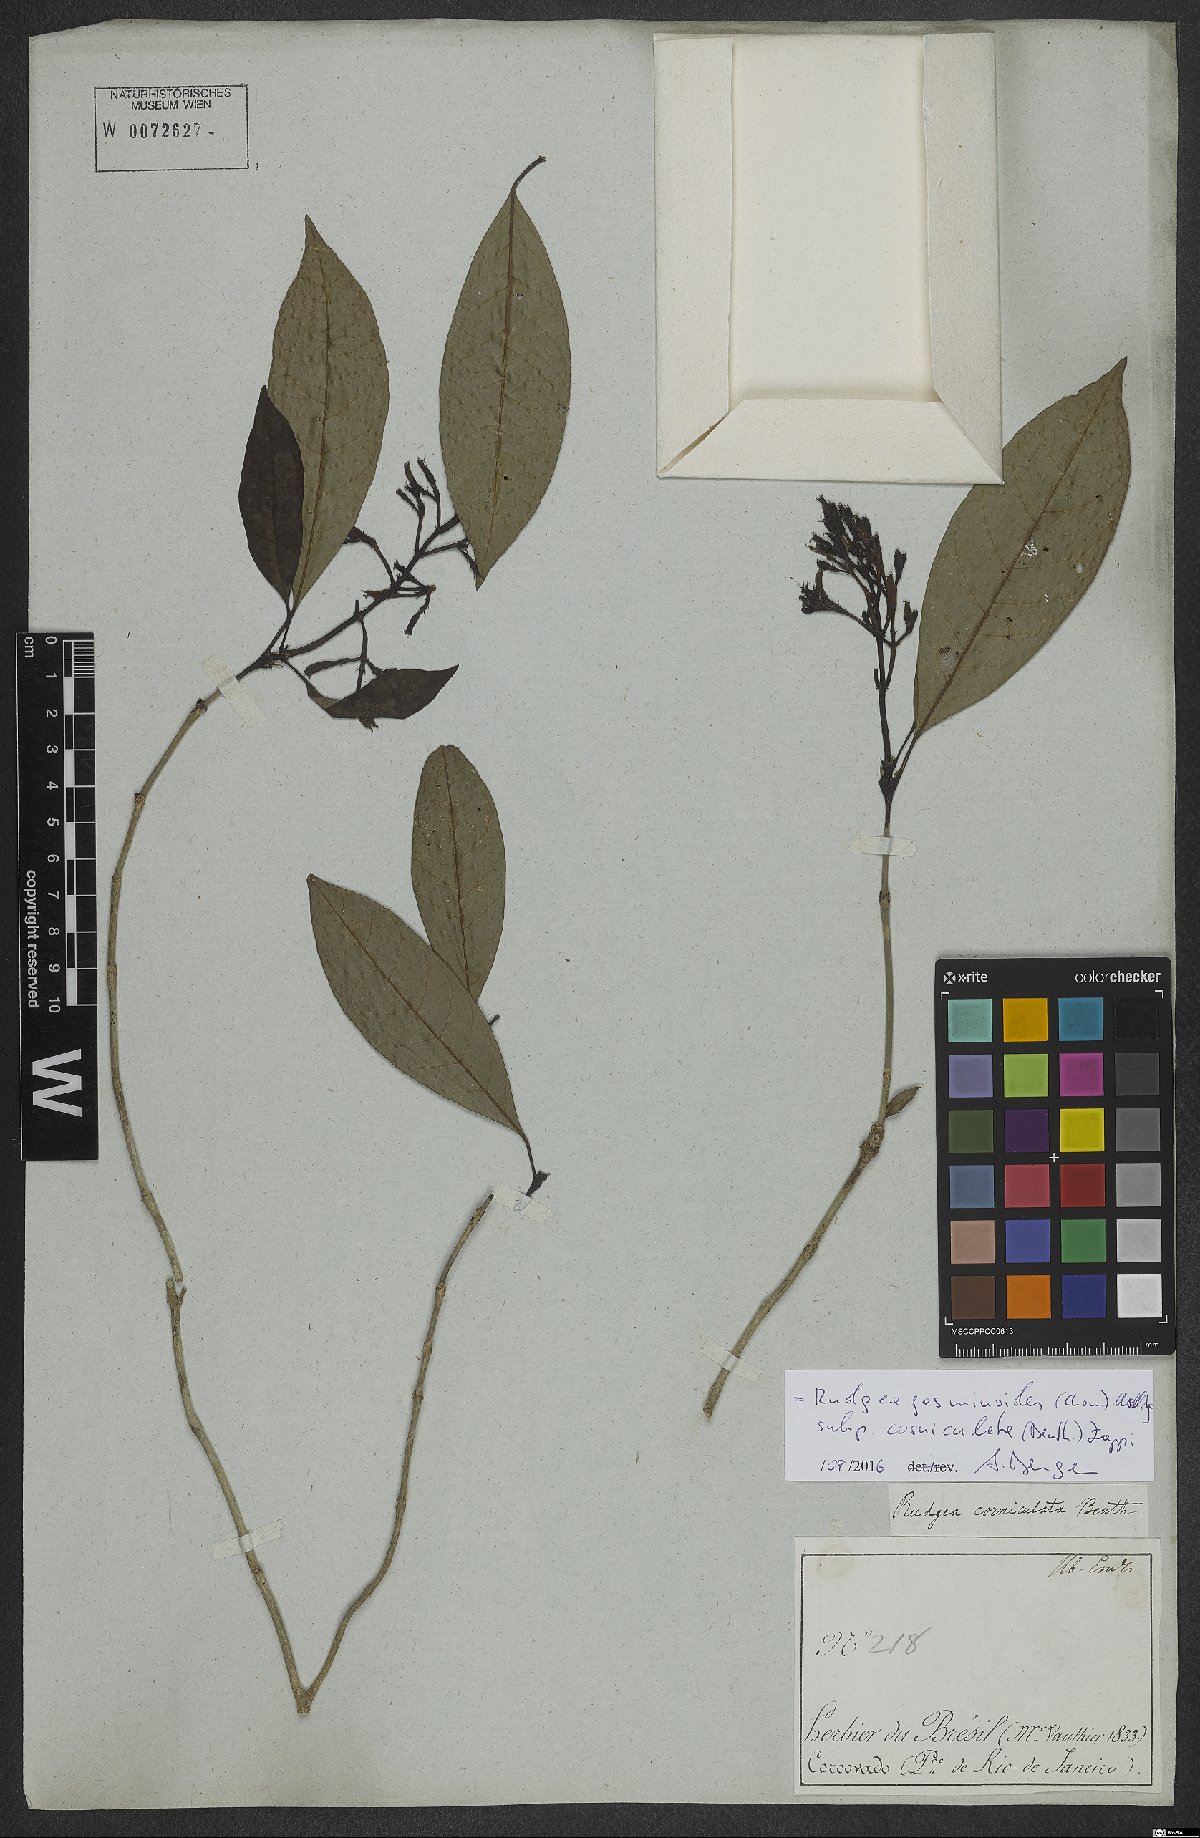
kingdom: Plantae
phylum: Tracheophyta
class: Magnoliopsida
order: Gentianales
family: Rubiaceae
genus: Rudgea
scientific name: Rudgea jasminoides
